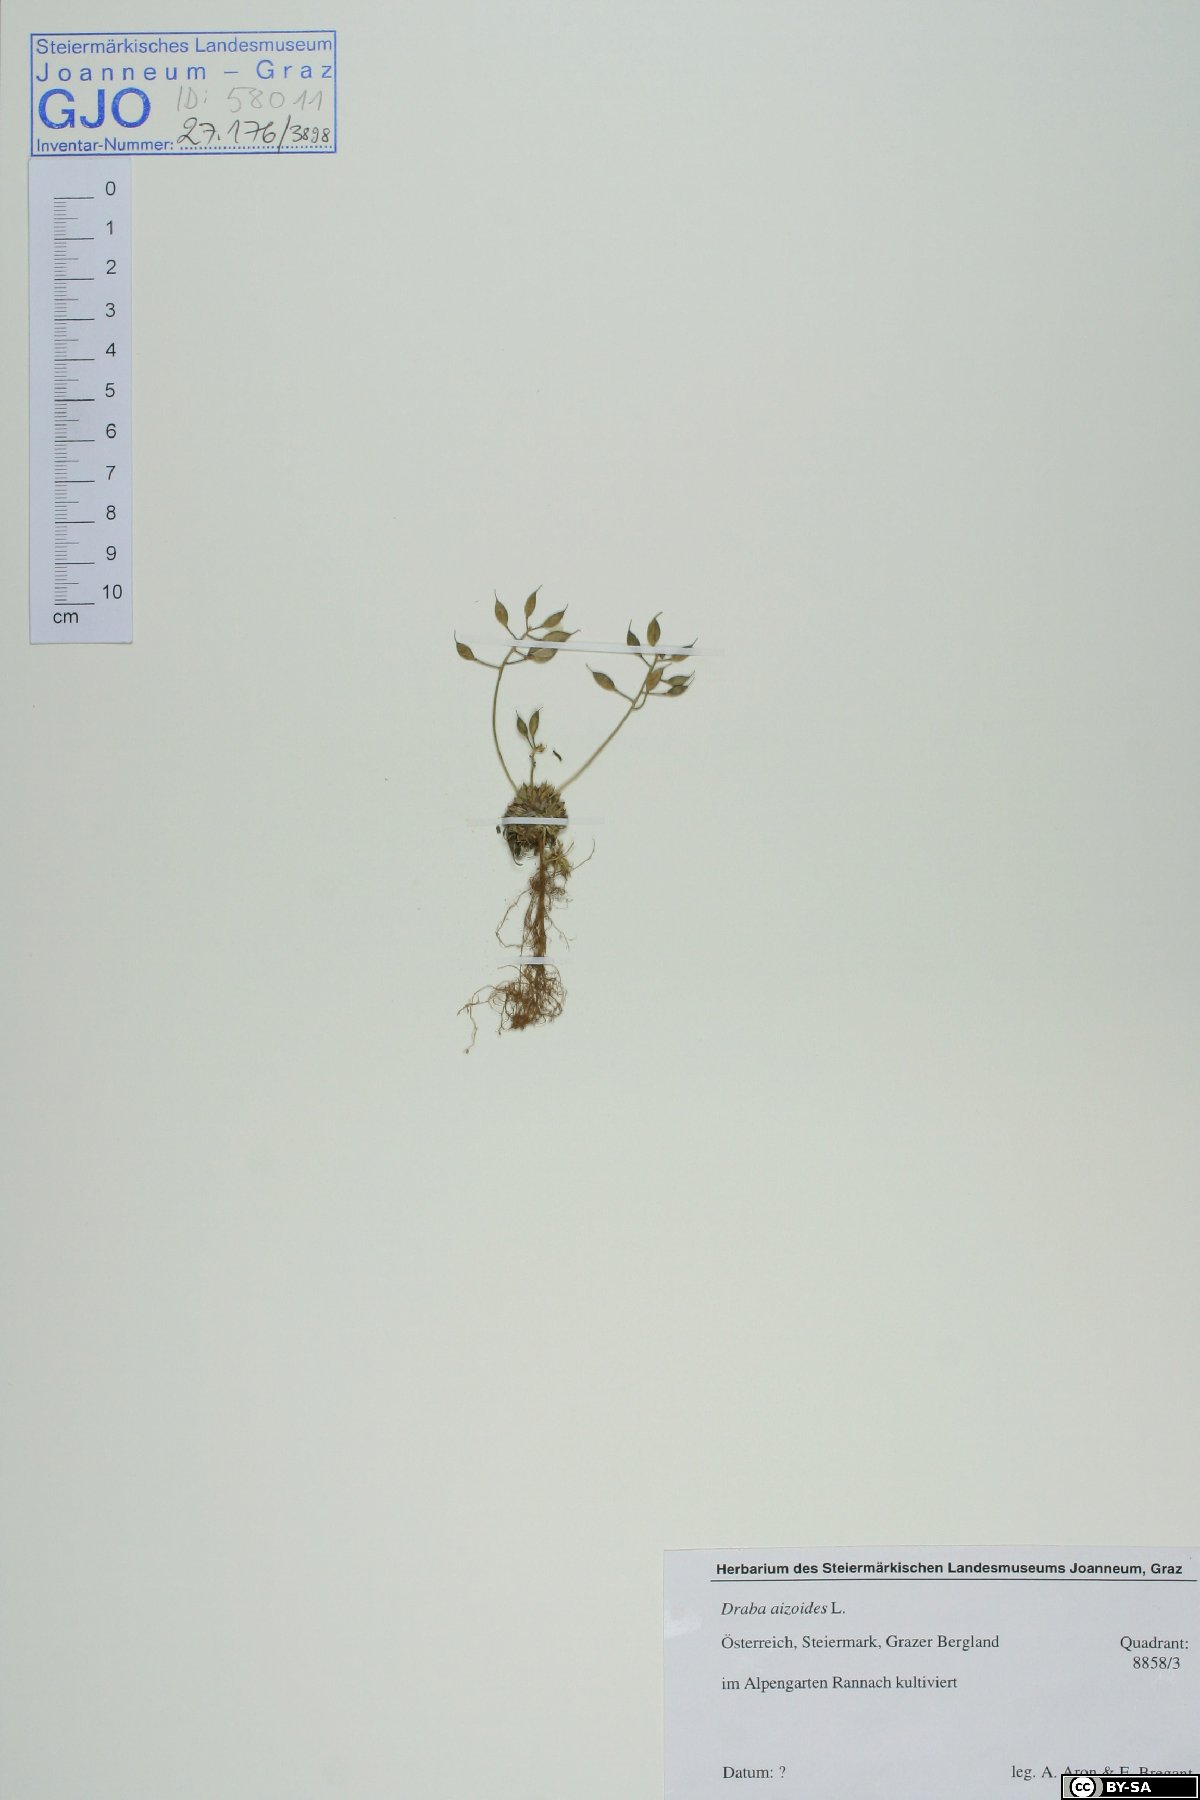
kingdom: Plantae
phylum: Tracheophyta
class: Magnoliopsida
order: Brassicales
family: Brassicaceae
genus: Draba
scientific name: Draba aizoides
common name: Yellow whitlowgrass
